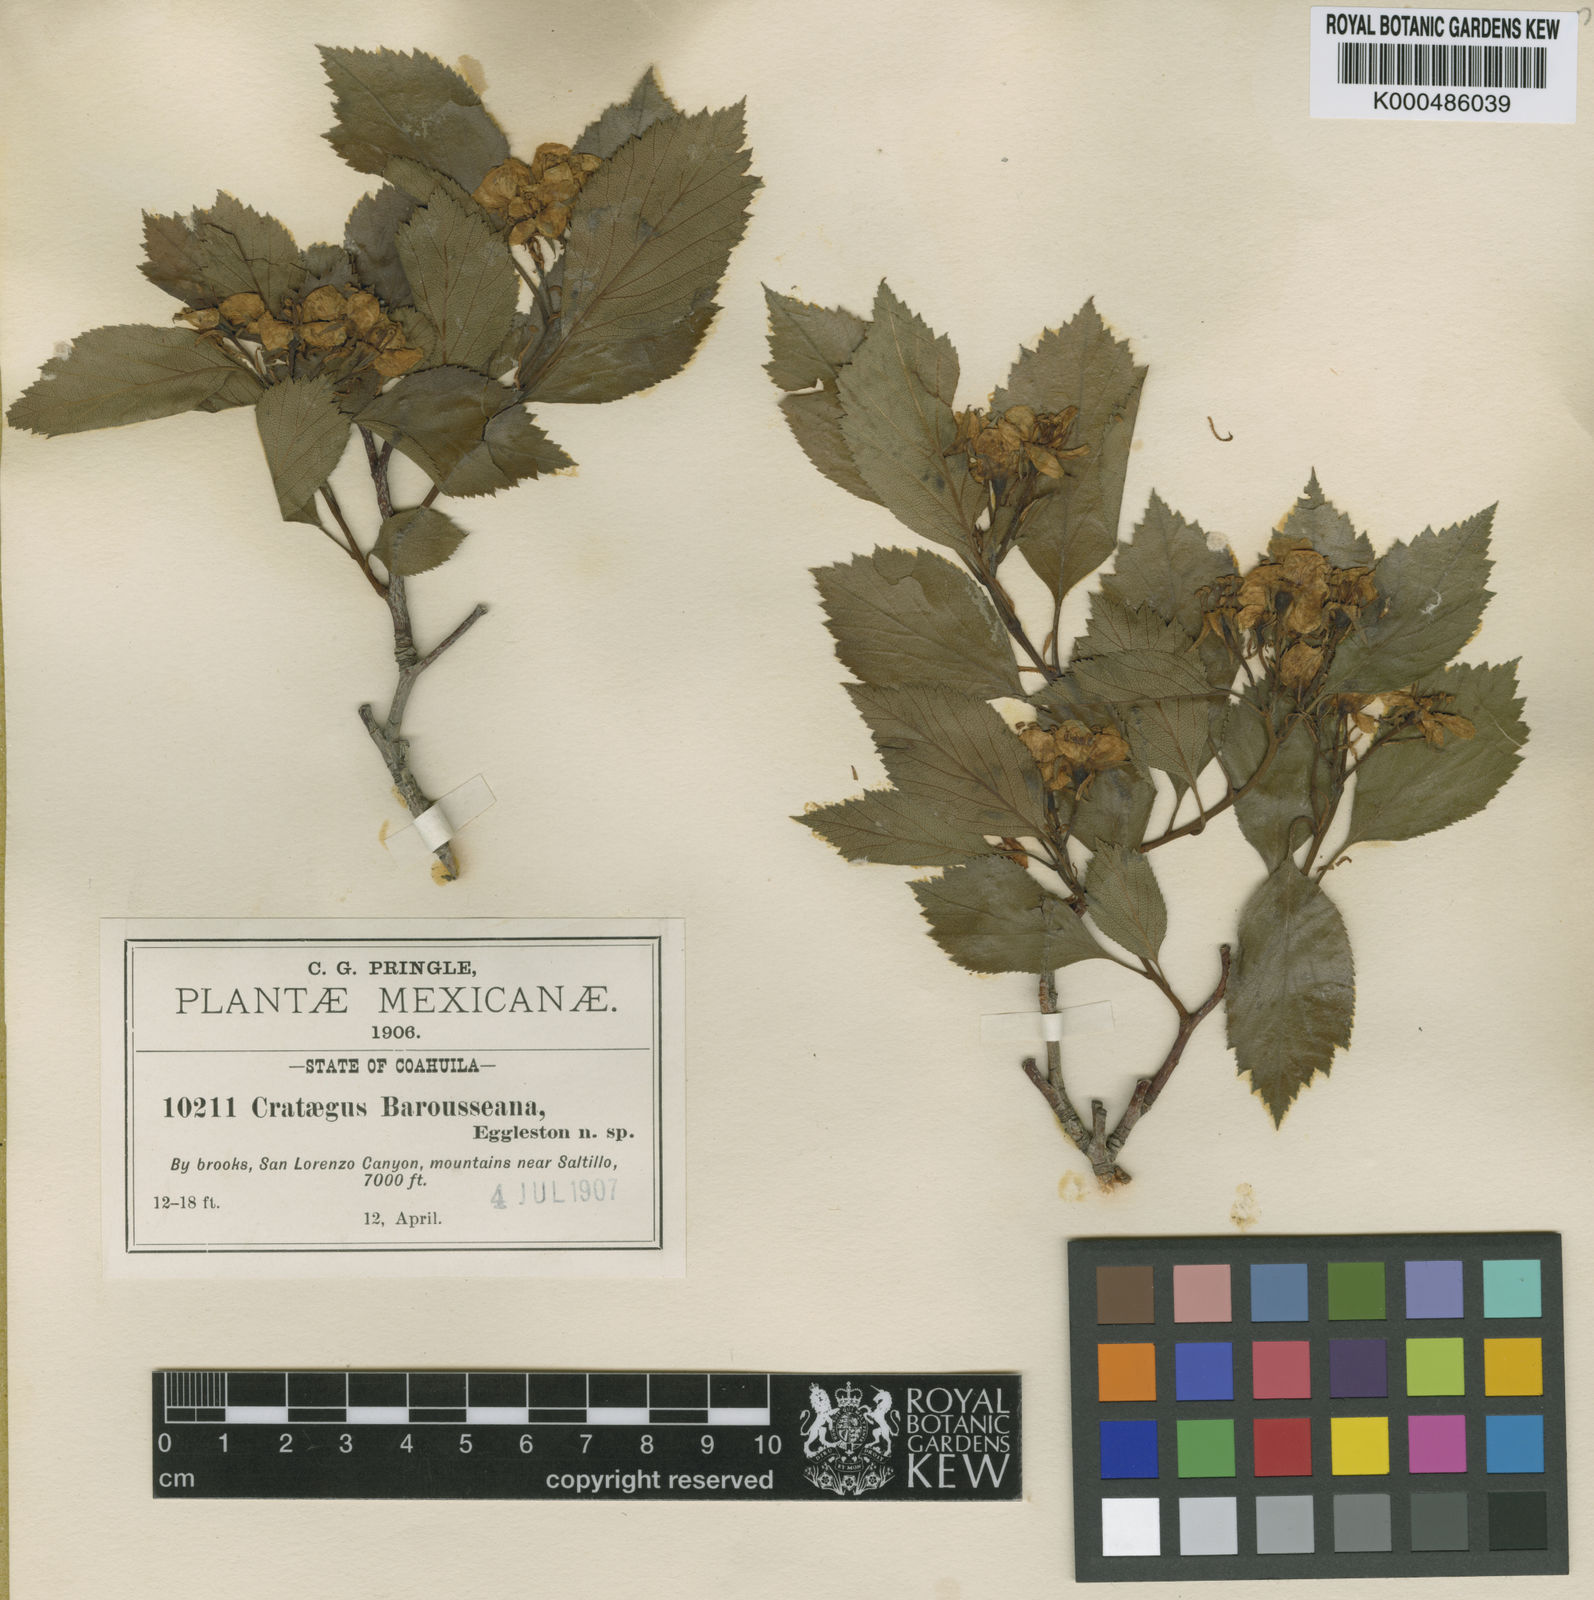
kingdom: Plantae
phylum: Tracheophyta
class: Magnoliopsida
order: Rosales
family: Rosaceae
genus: Crataegus
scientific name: Crataegus baroussana
